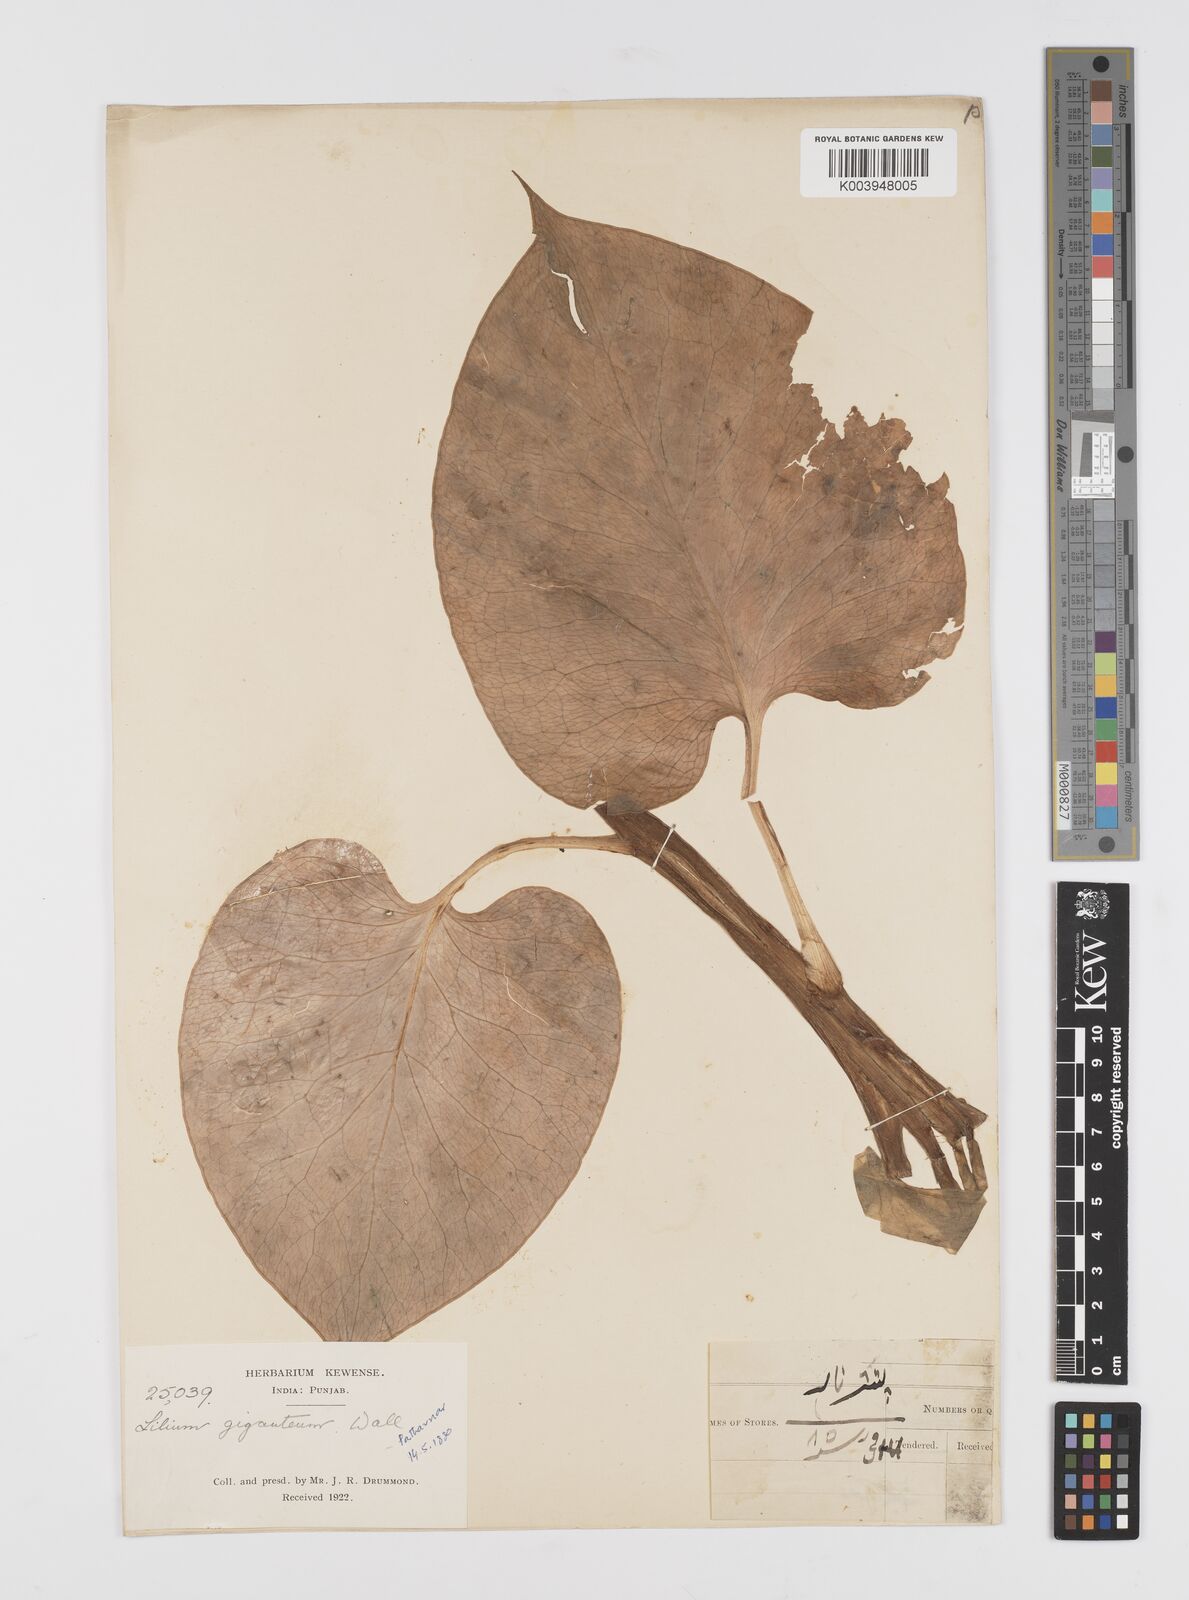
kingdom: Plantae
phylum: Tracheophyta
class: Liliopsida
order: Liliales
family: Liliaceae
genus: Cardiocrinum
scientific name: Cardiocrinum giganteum
